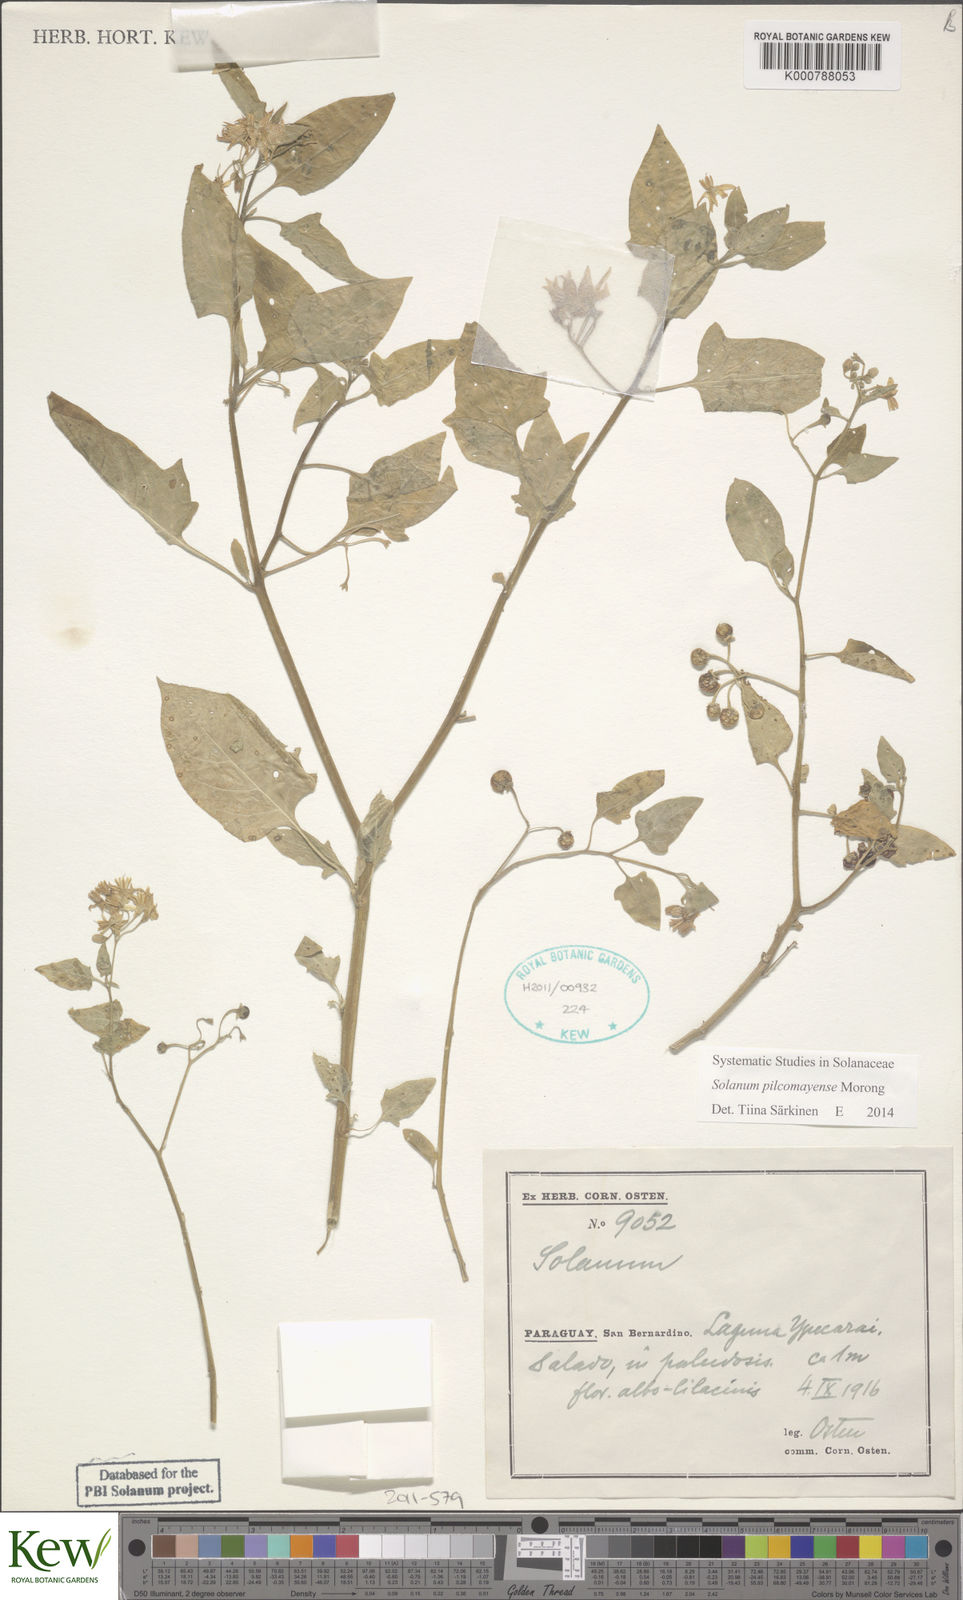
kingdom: Plantae
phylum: Tracheophyta
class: Magnoliopsida
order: Solanales
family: Solanaceae
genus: Solanum
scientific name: Solanum pilcomayense
